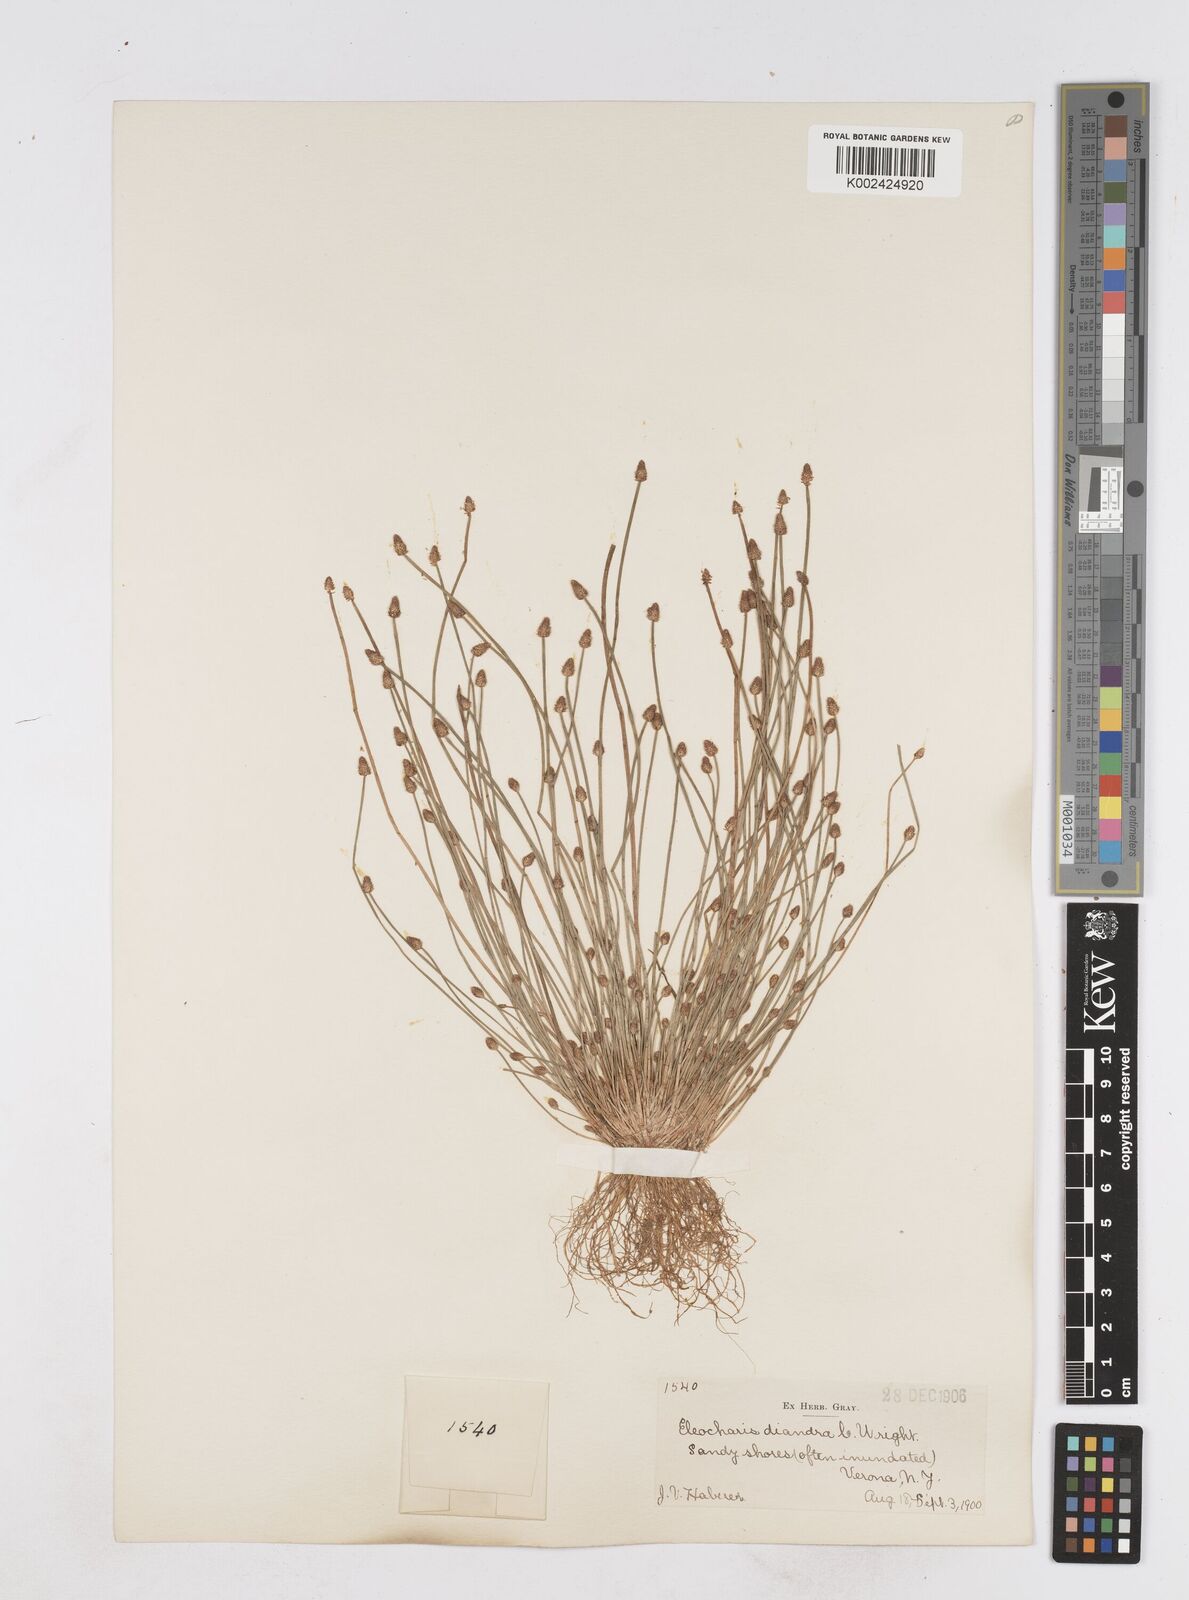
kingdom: Plantae
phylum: Tracheophyta
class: Liliopsida
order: Poales
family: Cyperaceae
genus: Eleocharis
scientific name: Eleocharis ovata
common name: Oval spike-rush
